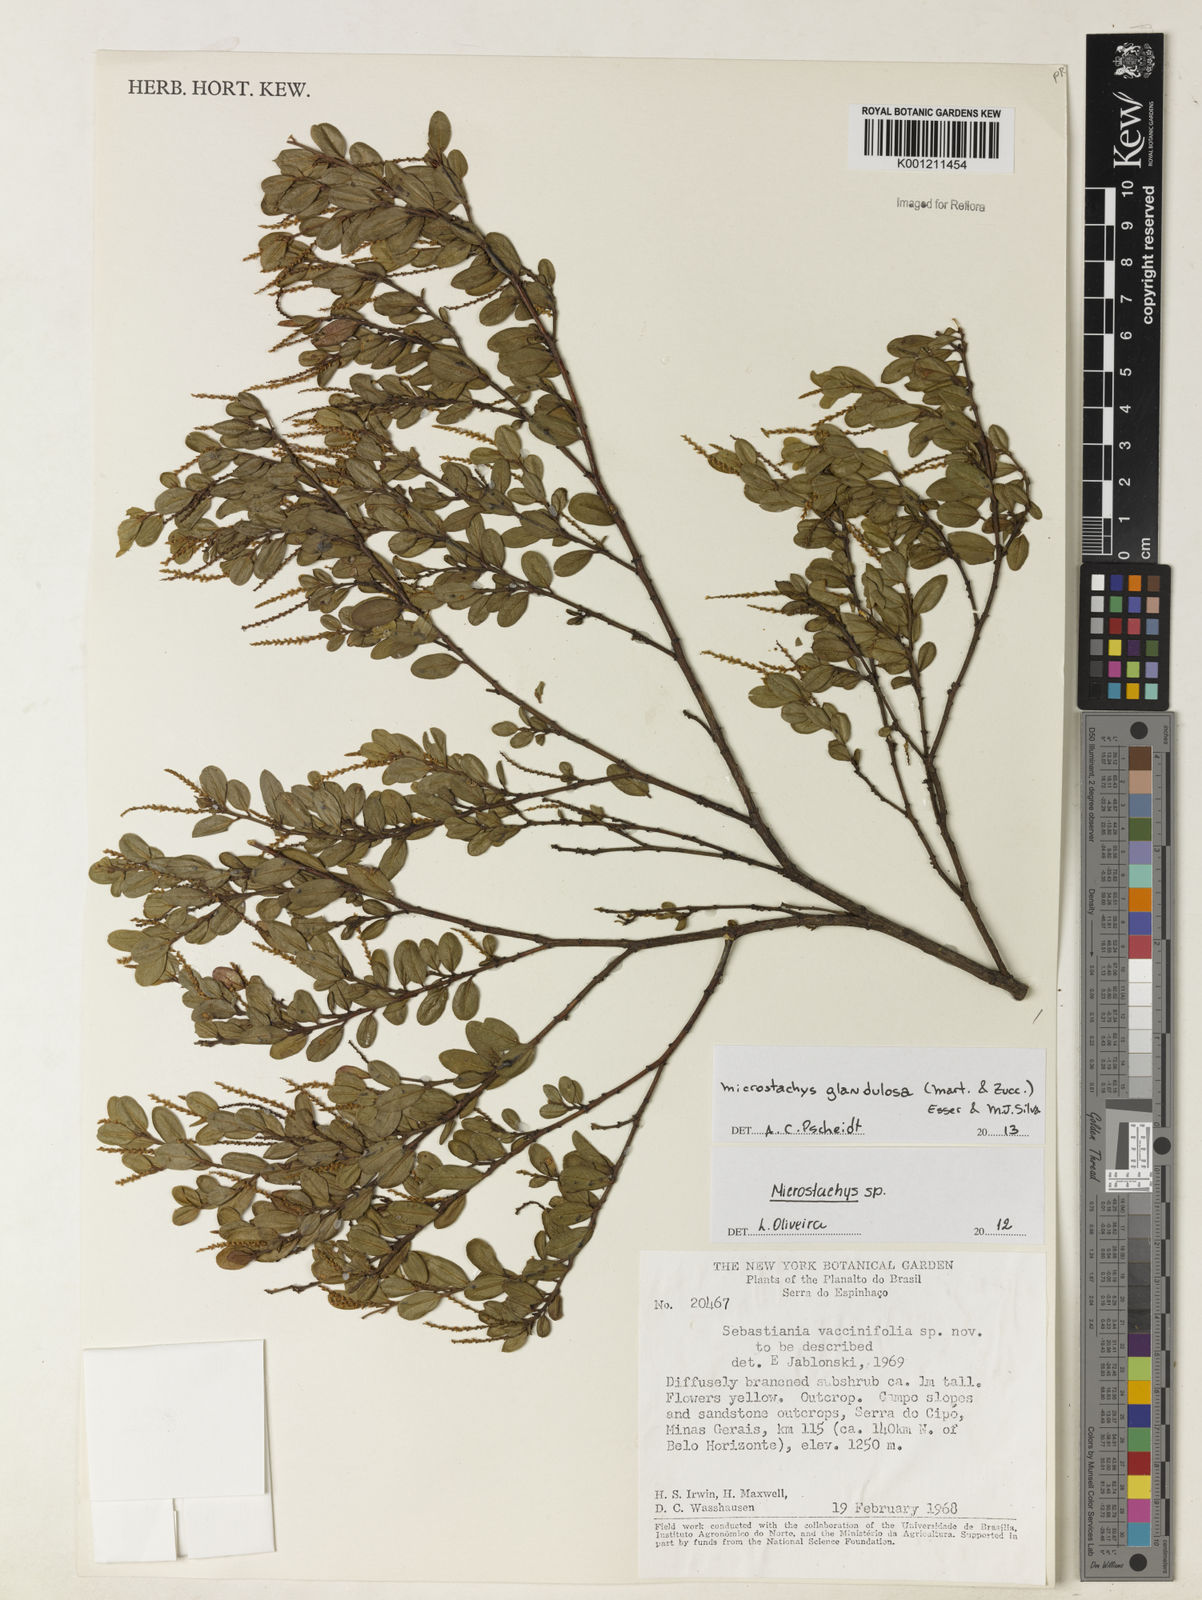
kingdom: Plantae
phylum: Tracheophyta
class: Magnoliopsida
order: Malpighiales
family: Euphorbiaceae
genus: Microstachys
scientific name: Microstachys glandulosa
